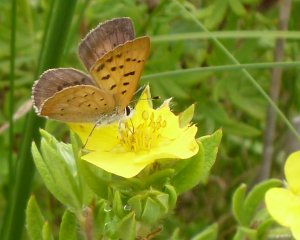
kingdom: Animalia
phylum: Arthropoda
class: Insecta
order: Lepidoptera
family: Lycaenidae
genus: Epidemia
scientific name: Epidemia dorcas
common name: Dorcas Copper
